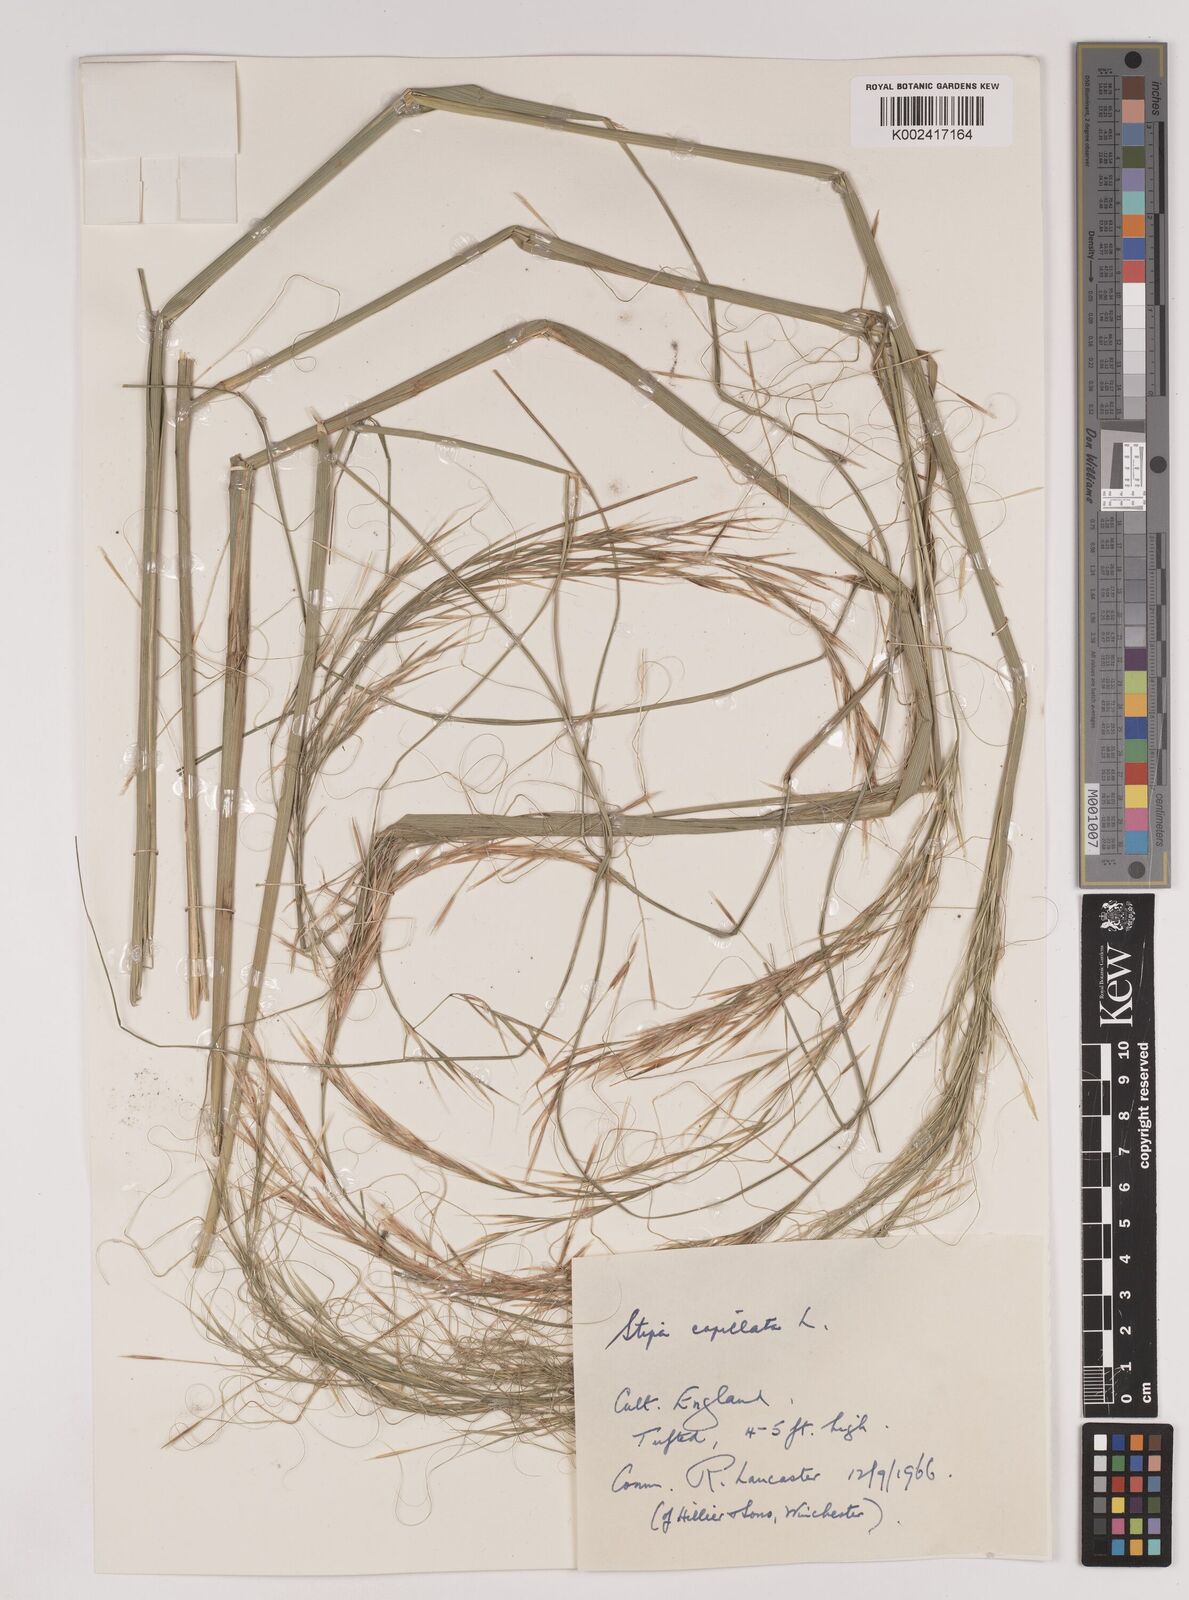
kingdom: Plantae
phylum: Tracheophyta
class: Liliopsida
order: Poales
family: Poaceae
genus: Stipa
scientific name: Stipa capillata
